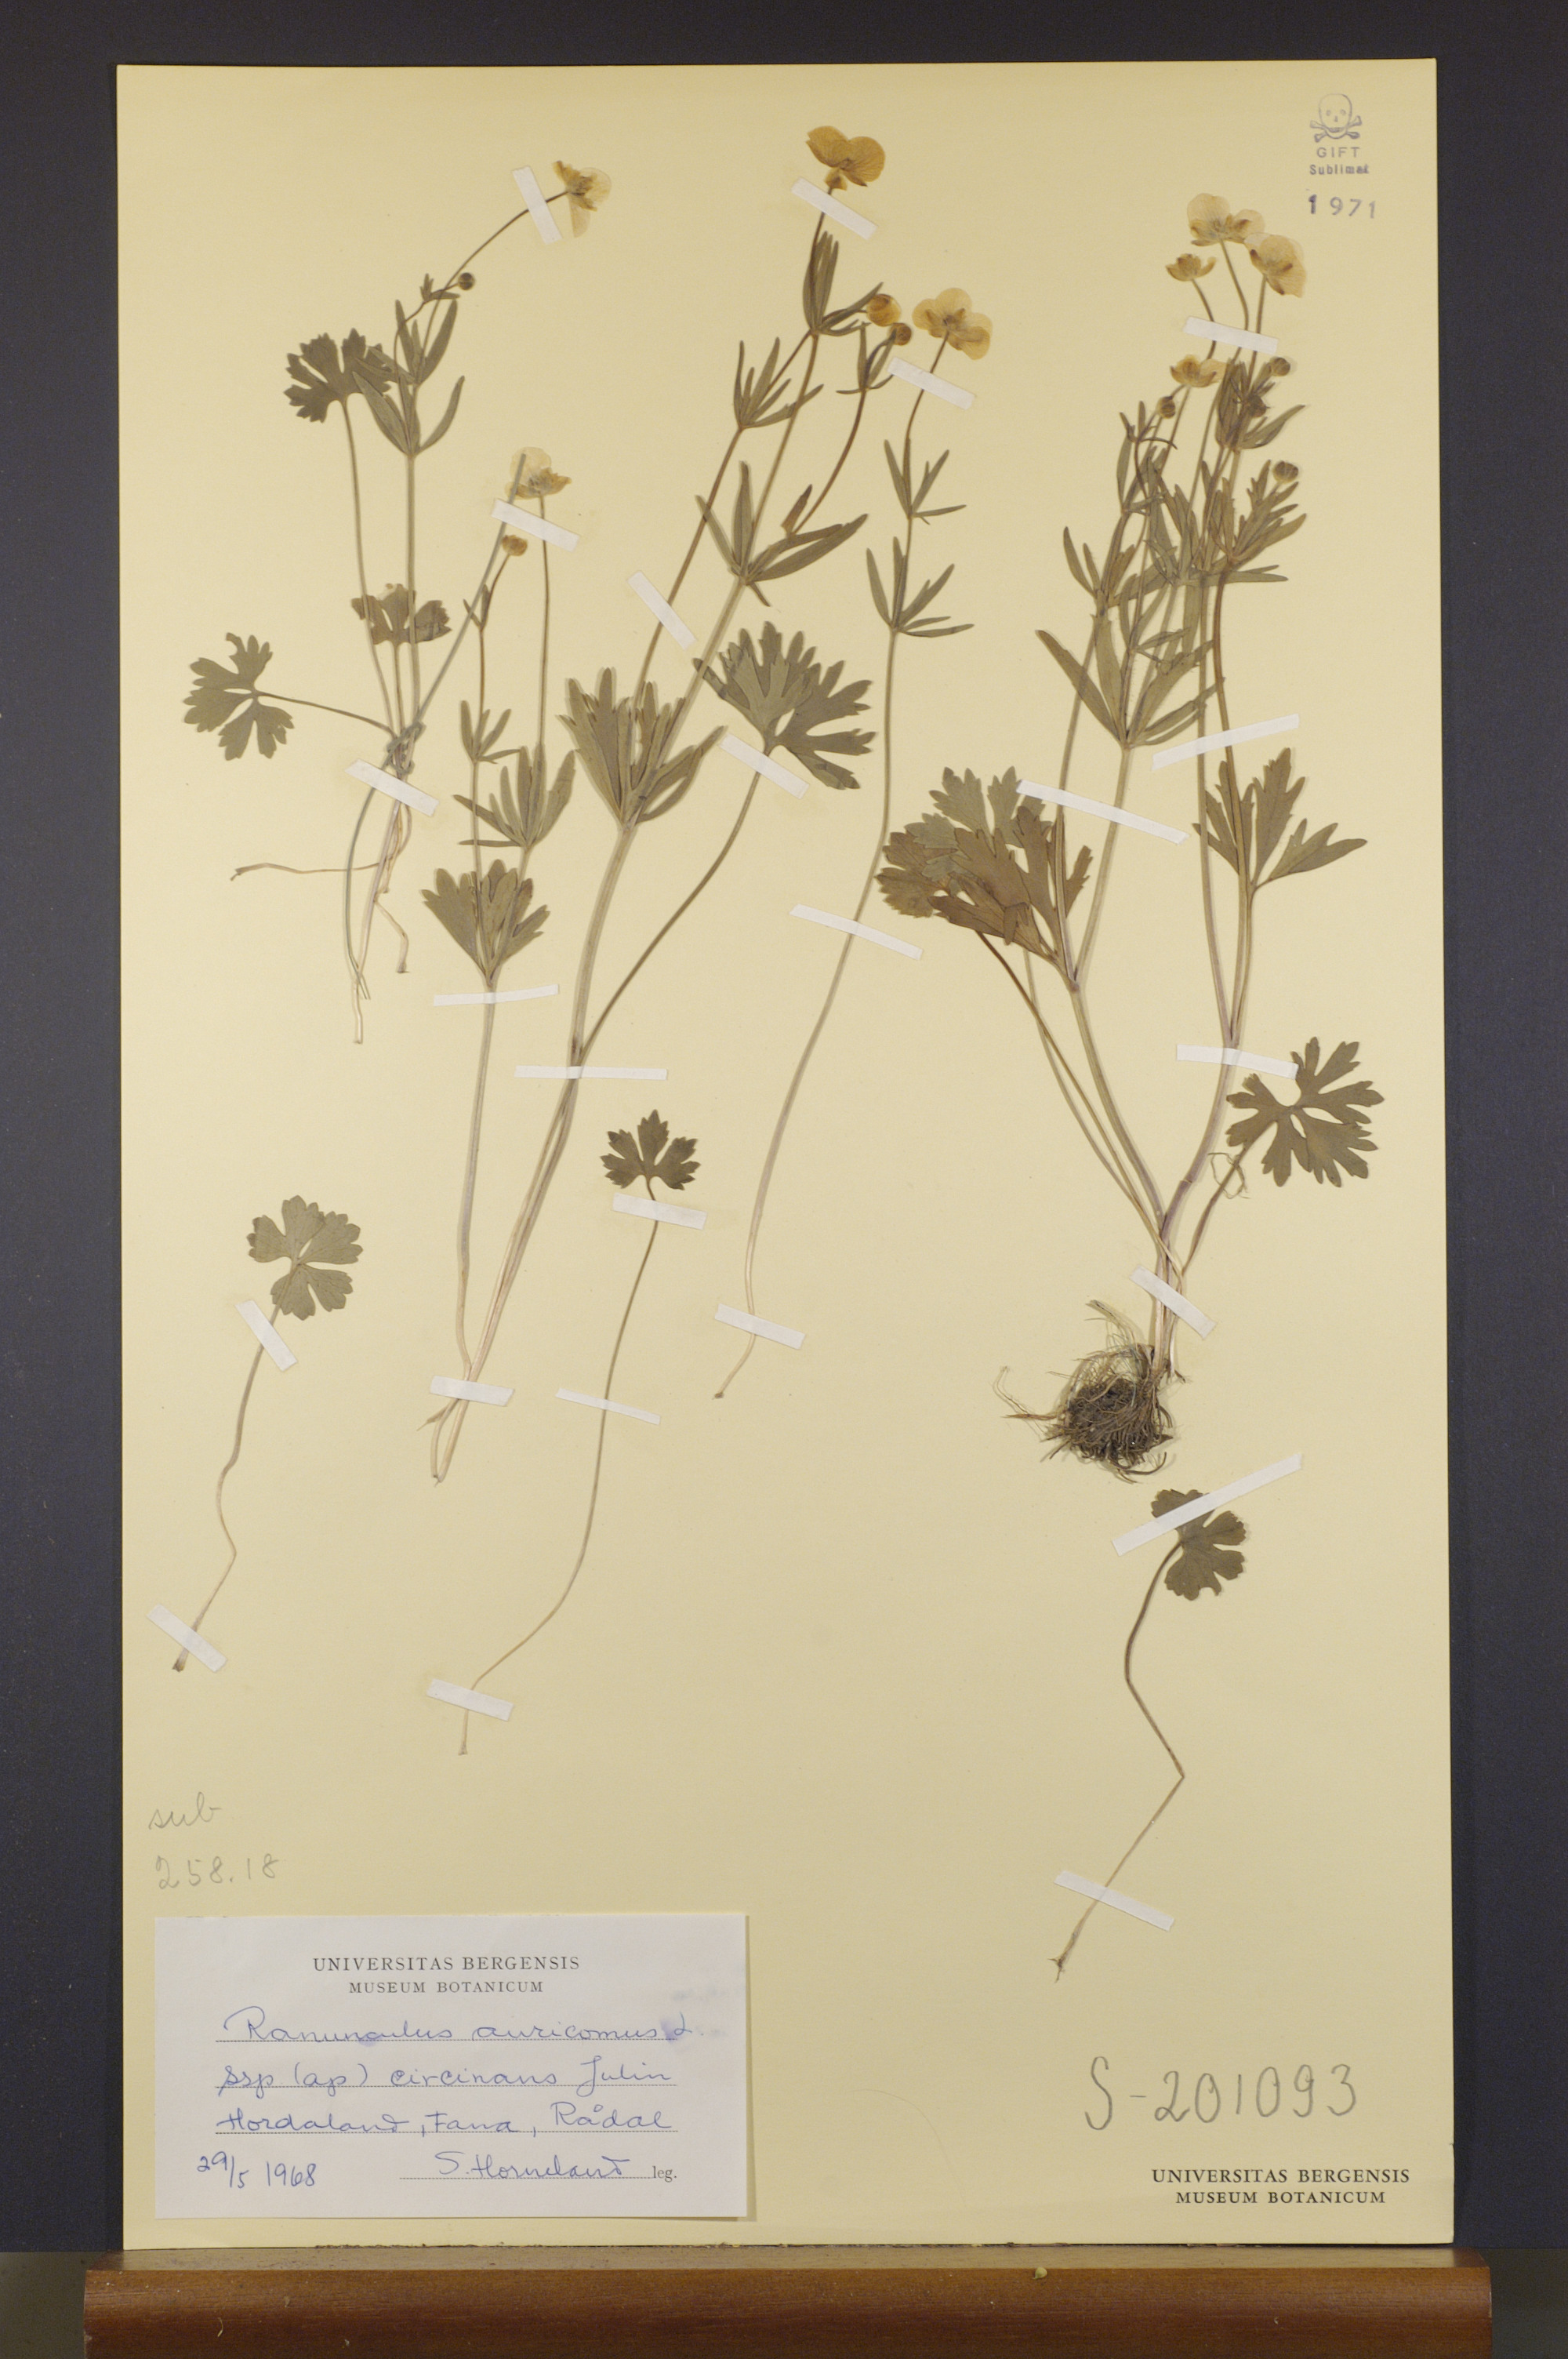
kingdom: Plantae
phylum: Tracheophyta
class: Magnoliopsida
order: Ranunculales
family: Ranunculaceae
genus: Ranunculus
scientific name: Ranunculus circinans
